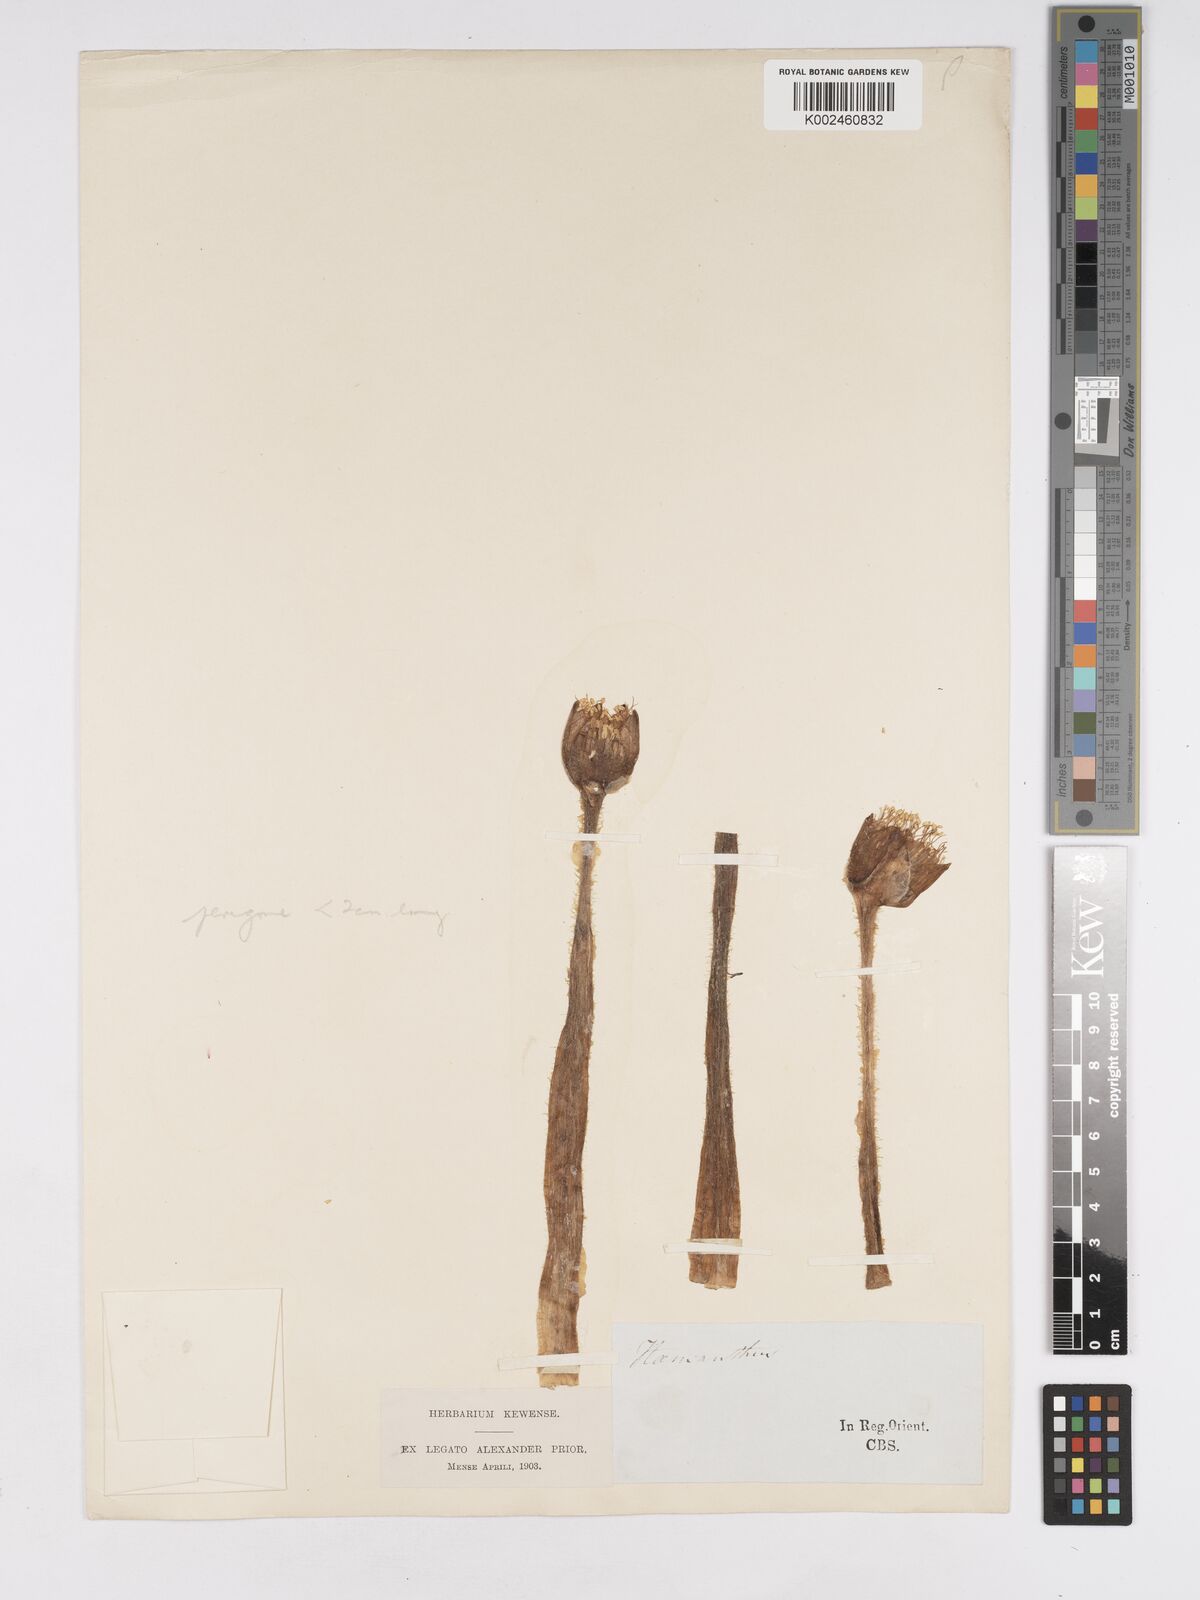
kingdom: Plantae
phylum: Tracheophyta
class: Liliopsida
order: Asparagales
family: Amaryllidaceae
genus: Haemanthus
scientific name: Haemanthus albiflos
